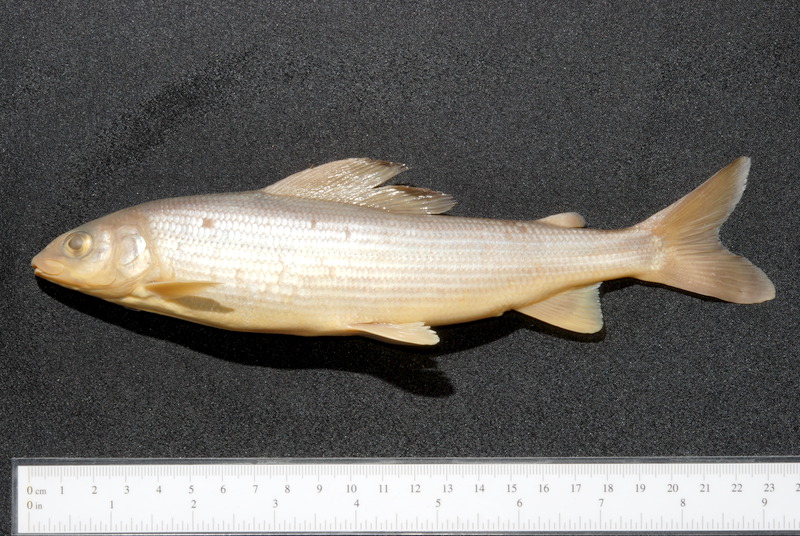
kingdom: Animalia
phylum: Chordata
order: Salmoniformes
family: Salmonidae
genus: Thymallus
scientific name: Thymallus thymallus
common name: Grayling
